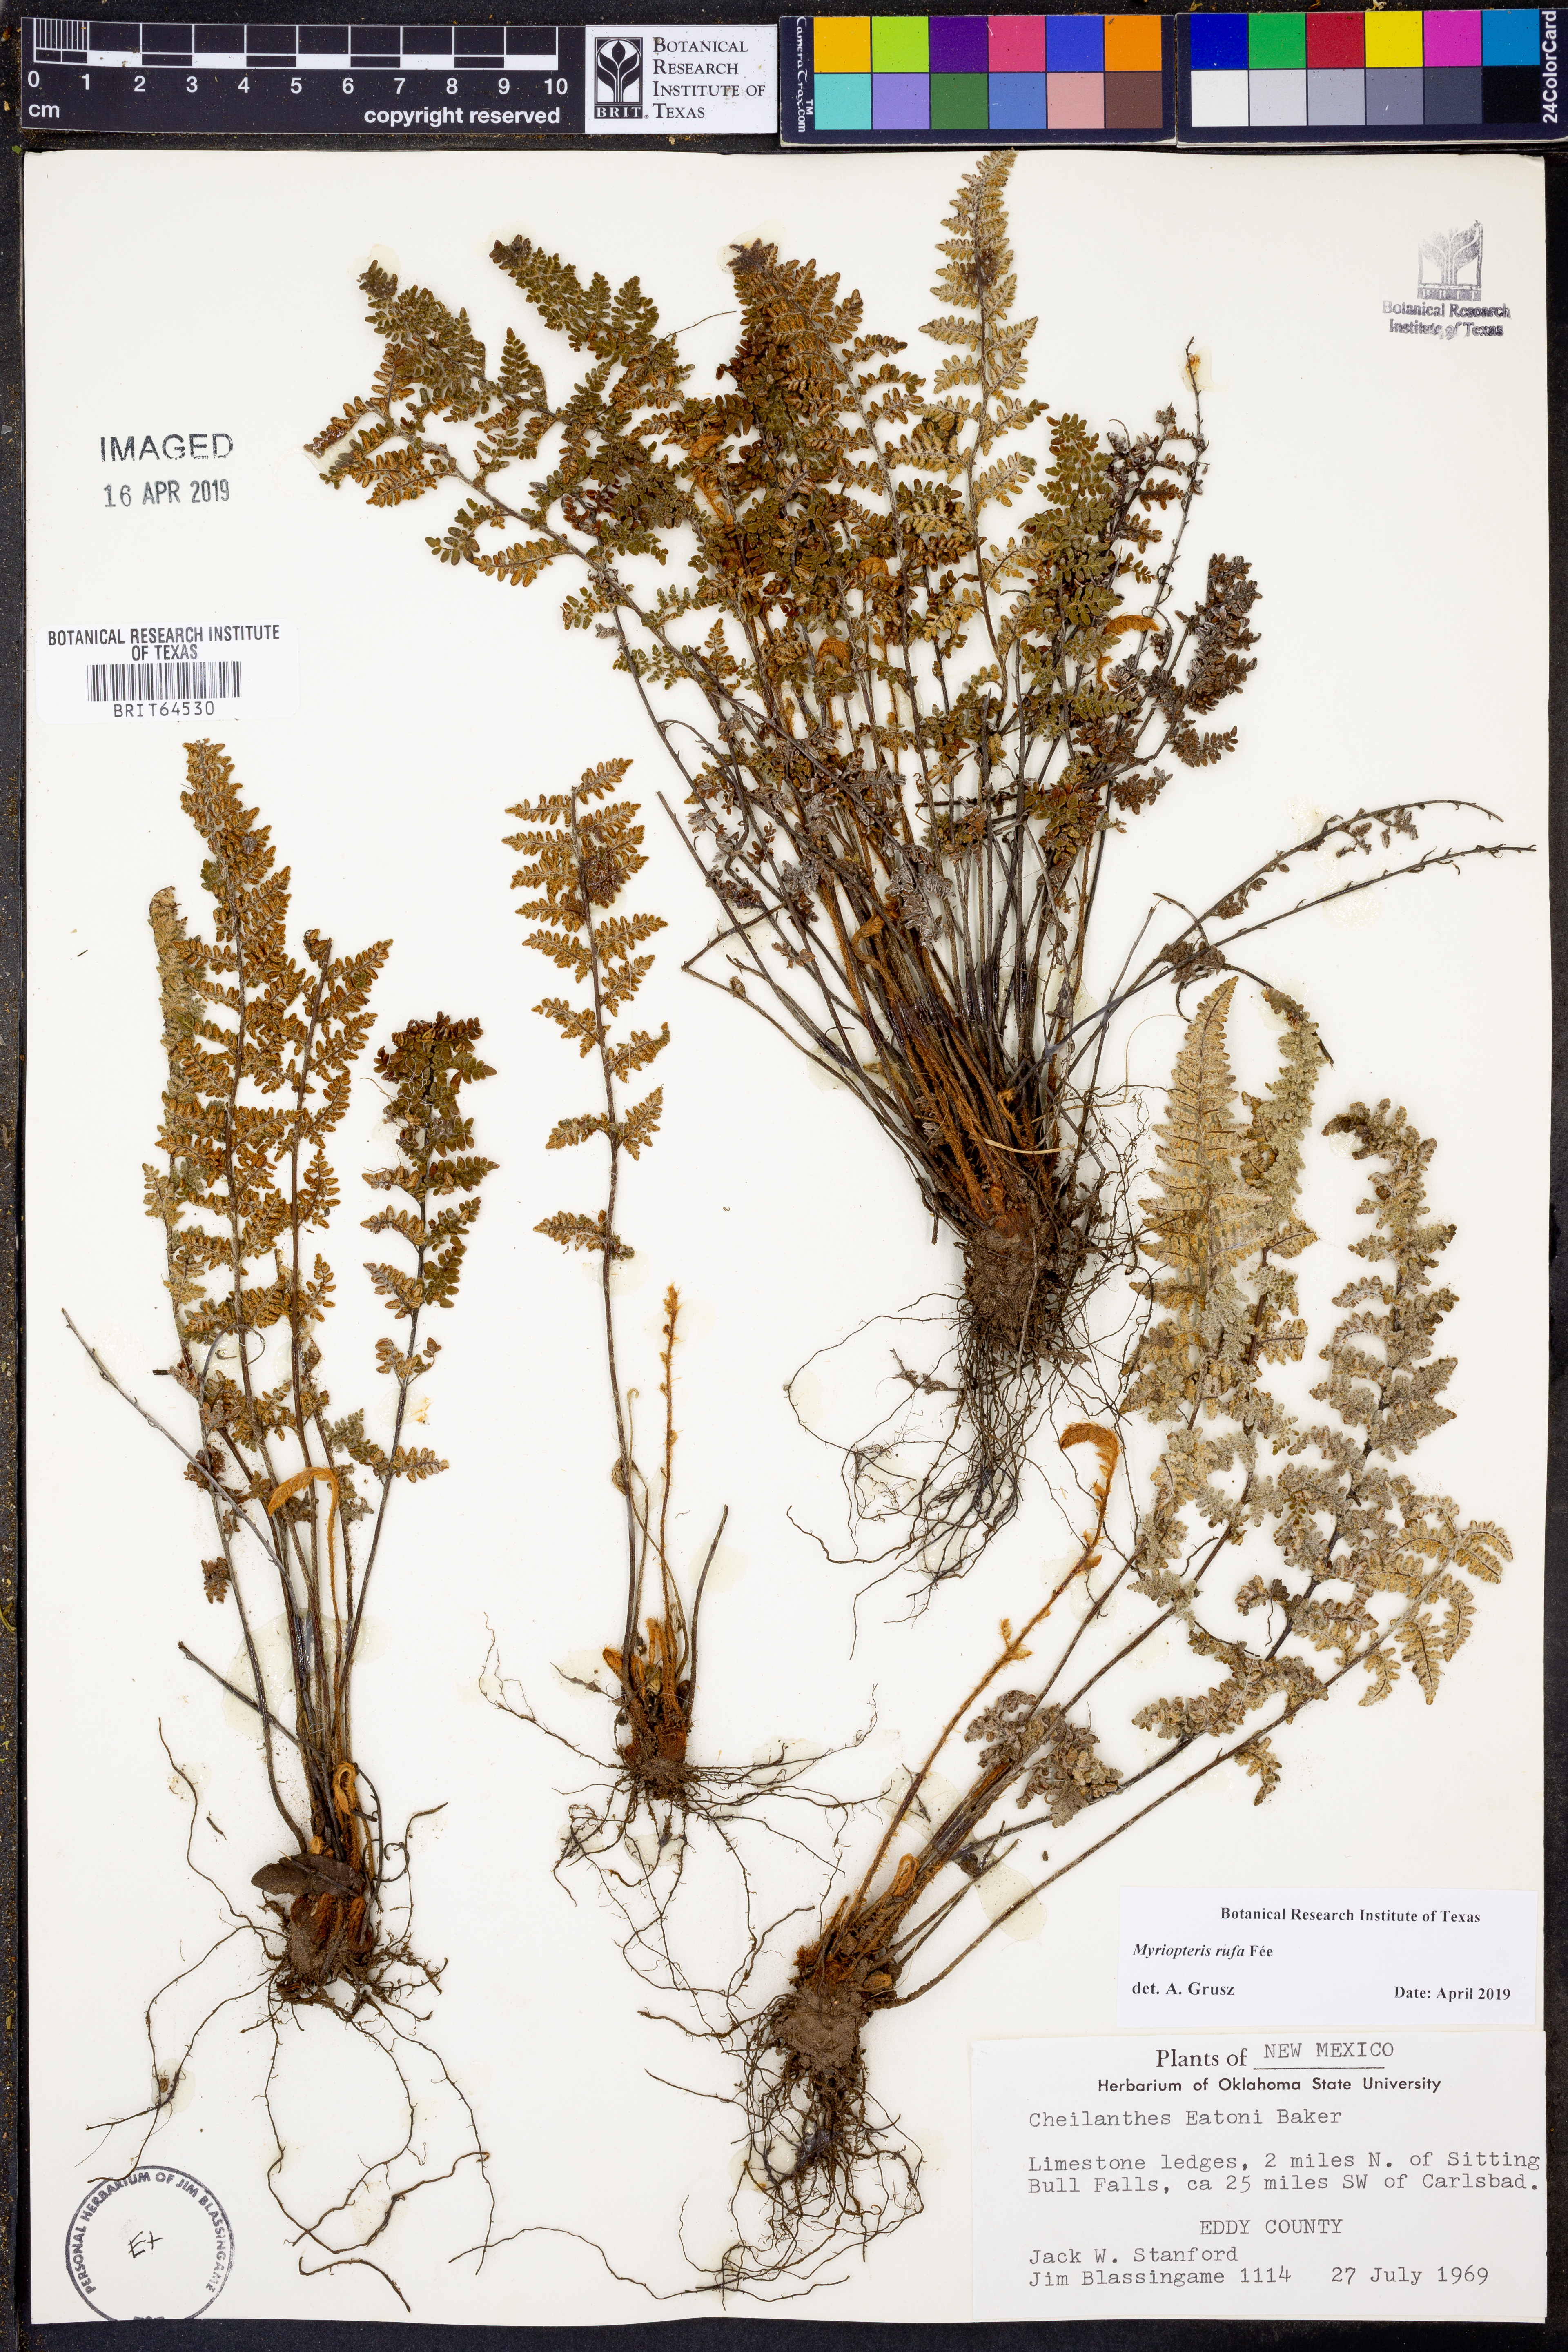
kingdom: Plantae
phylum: Tracheophyta
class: Polypodiopsida
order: Polypodiales
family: Pteridaceae
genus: Myriopteris
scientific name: Myriopteris rufa
